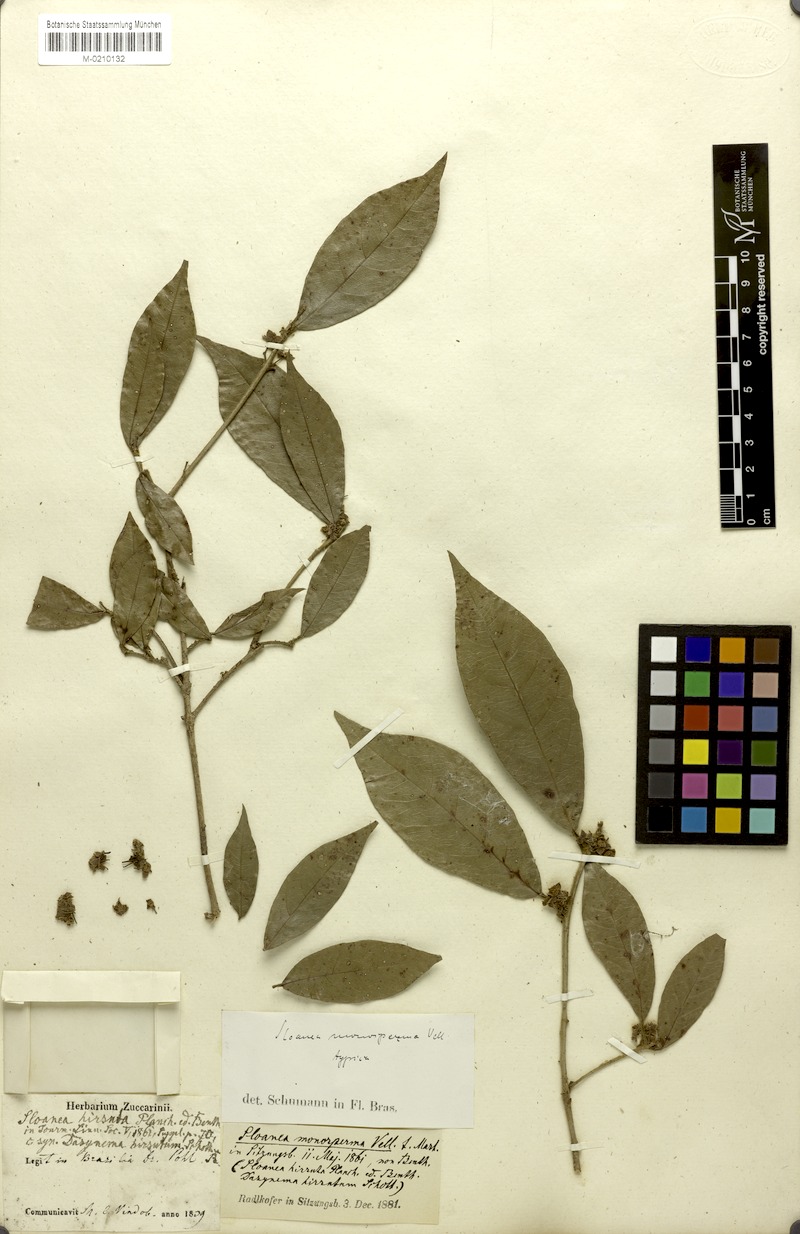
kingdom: Plantae
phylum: Tracheophyta
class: Magnoliopsida
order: Oxalidales
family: Elaeocarpaceae
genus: Sloanea
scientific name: Sloanea hirsuta
